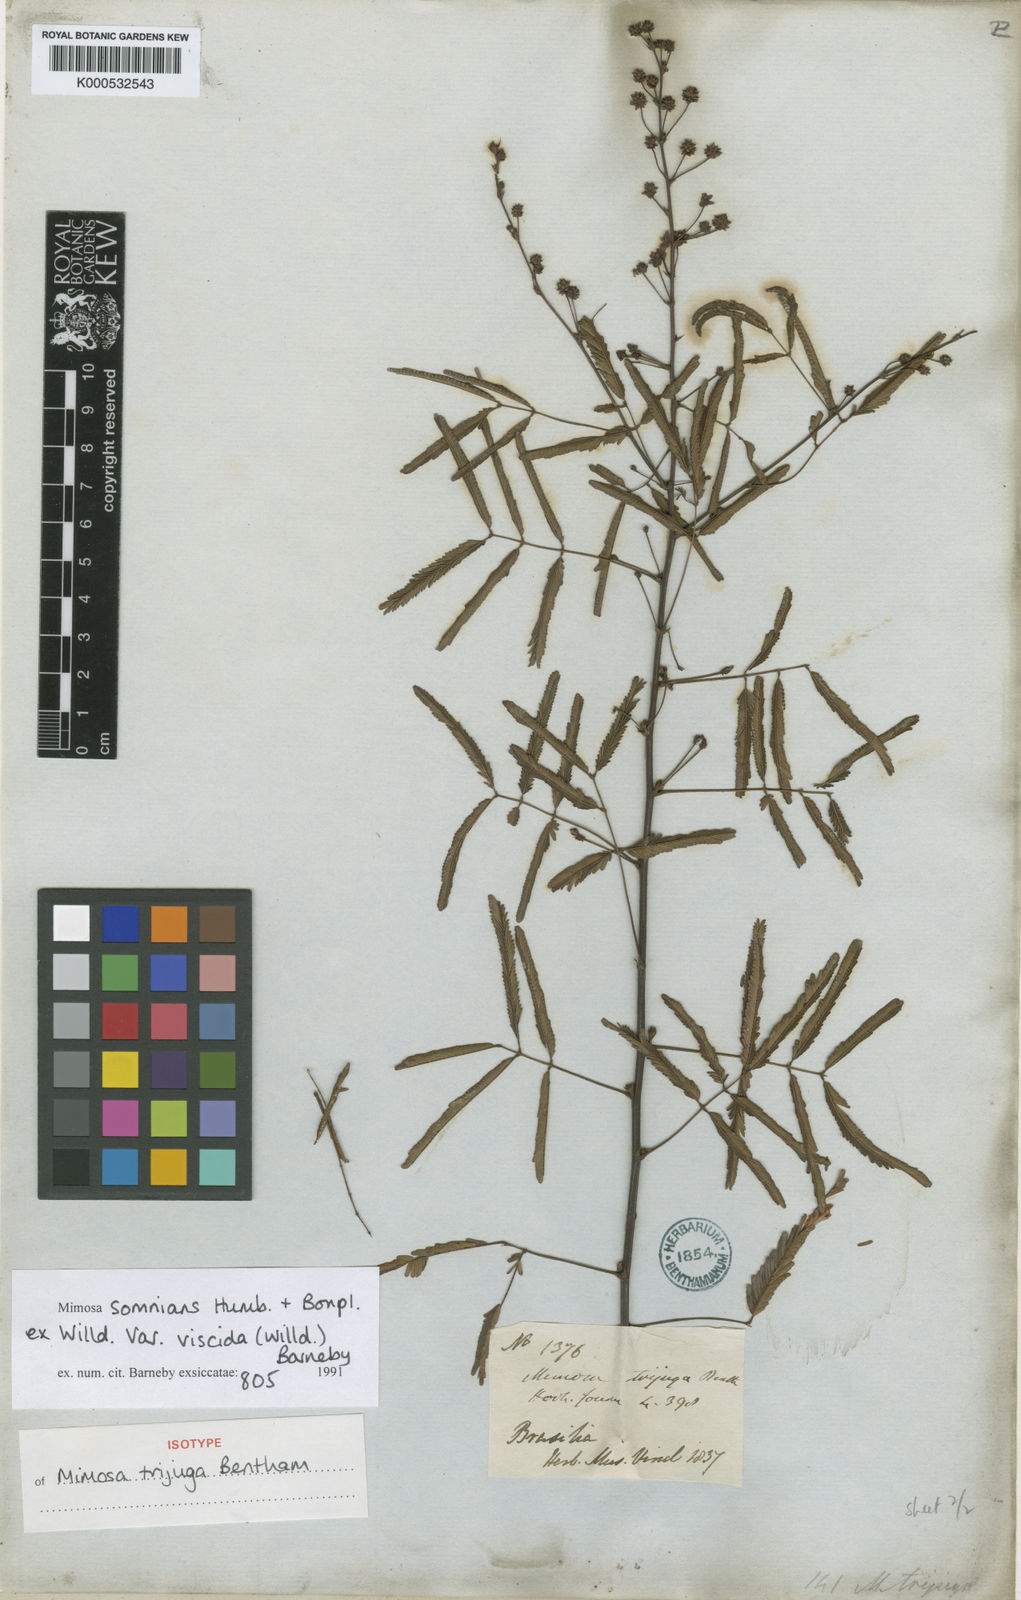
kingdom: Plantae
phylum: Tracheophyta
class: Magnoliopsida
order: Fabales
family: Fabaceae
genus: Mimosa
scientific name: Mimosa somnians
